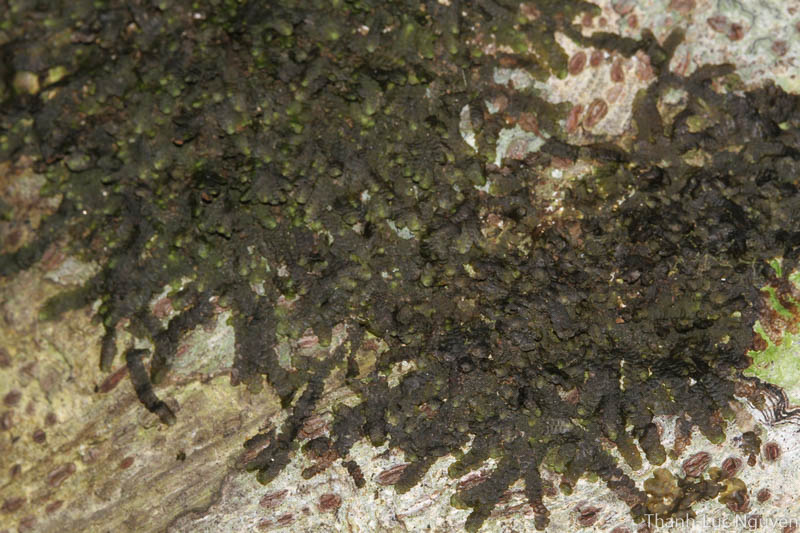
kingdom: Plantae
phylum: Marchantiophyta
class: Jungermanniopsida
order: Porellales
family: Lejeuneaceae
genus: Lopholejeunea
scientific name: Lopholejeunea subfusca
